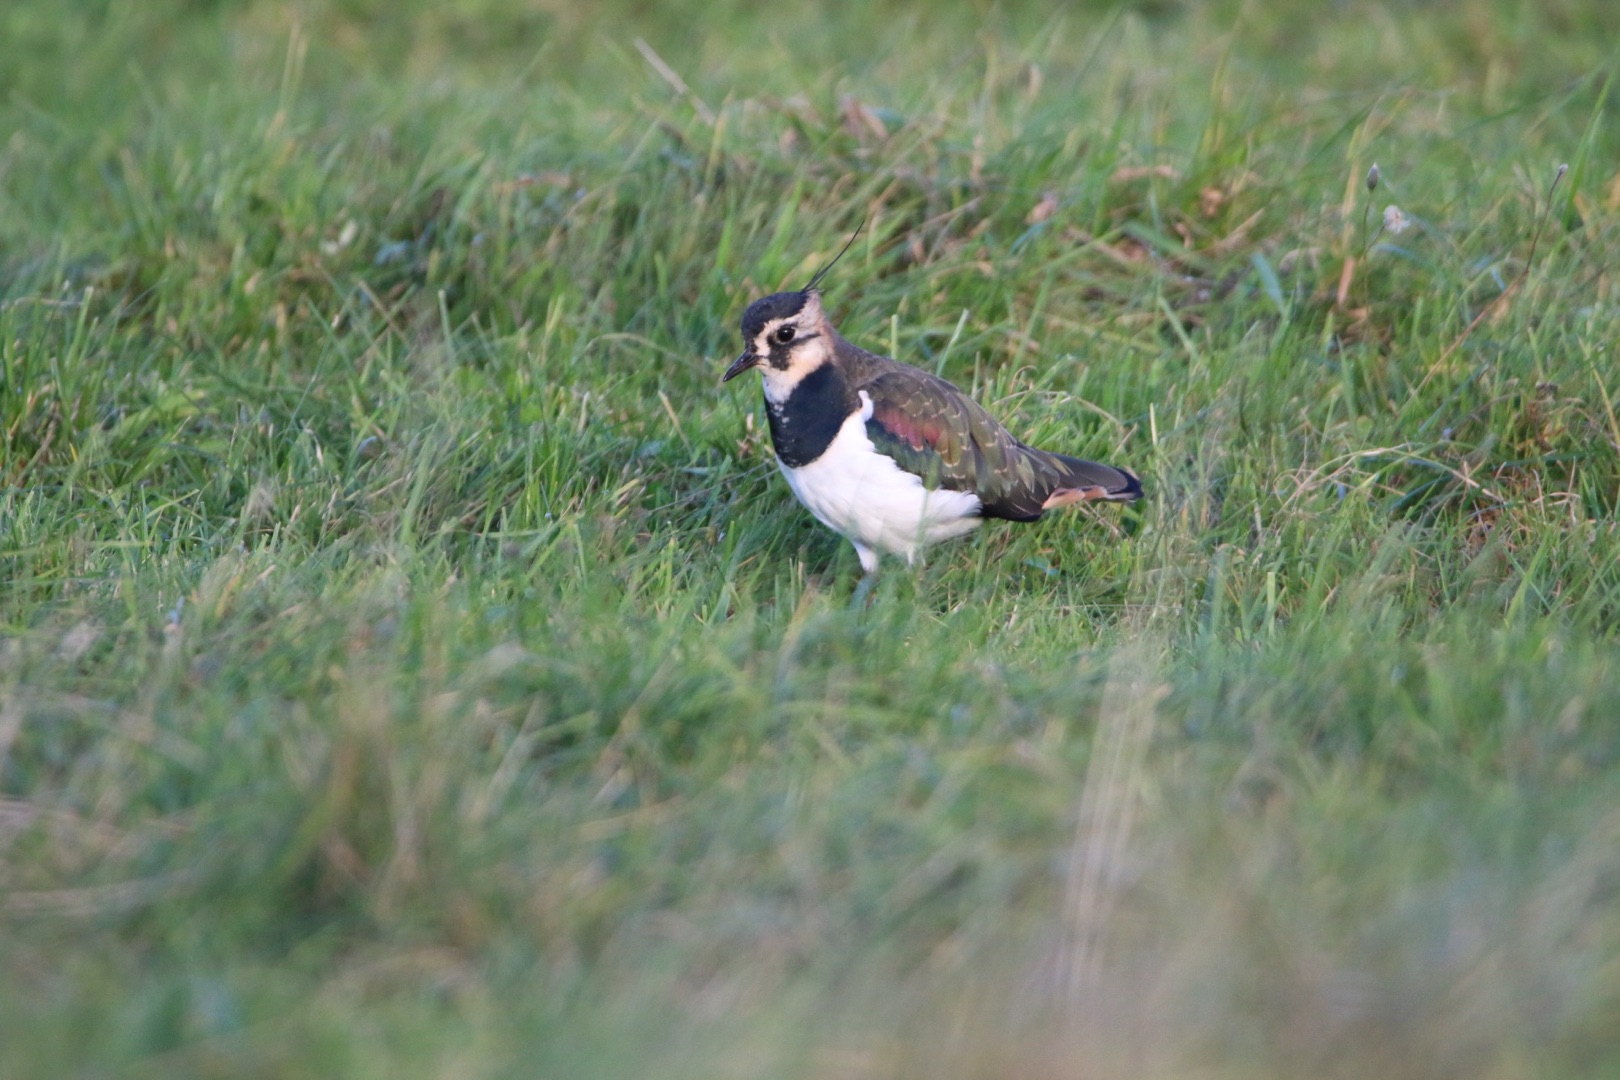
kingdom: Animalia
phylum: Chordata
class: Aves
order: Charadriiformes
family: Charadriidae
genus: Vanellus
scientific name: Vanellus vanellus
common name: Vibe
